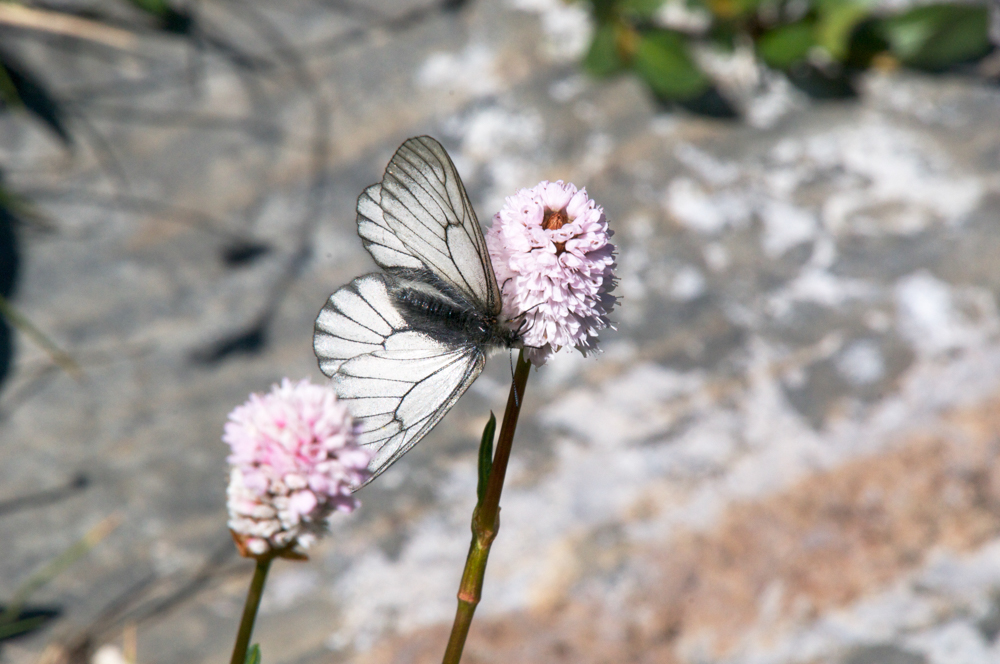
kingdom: Animalia
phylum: Arthropoda
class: Insecta
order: Lepidoptera
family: Pieridae
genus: Aporia
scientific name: Aporia crataegi
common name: Black-veined white
